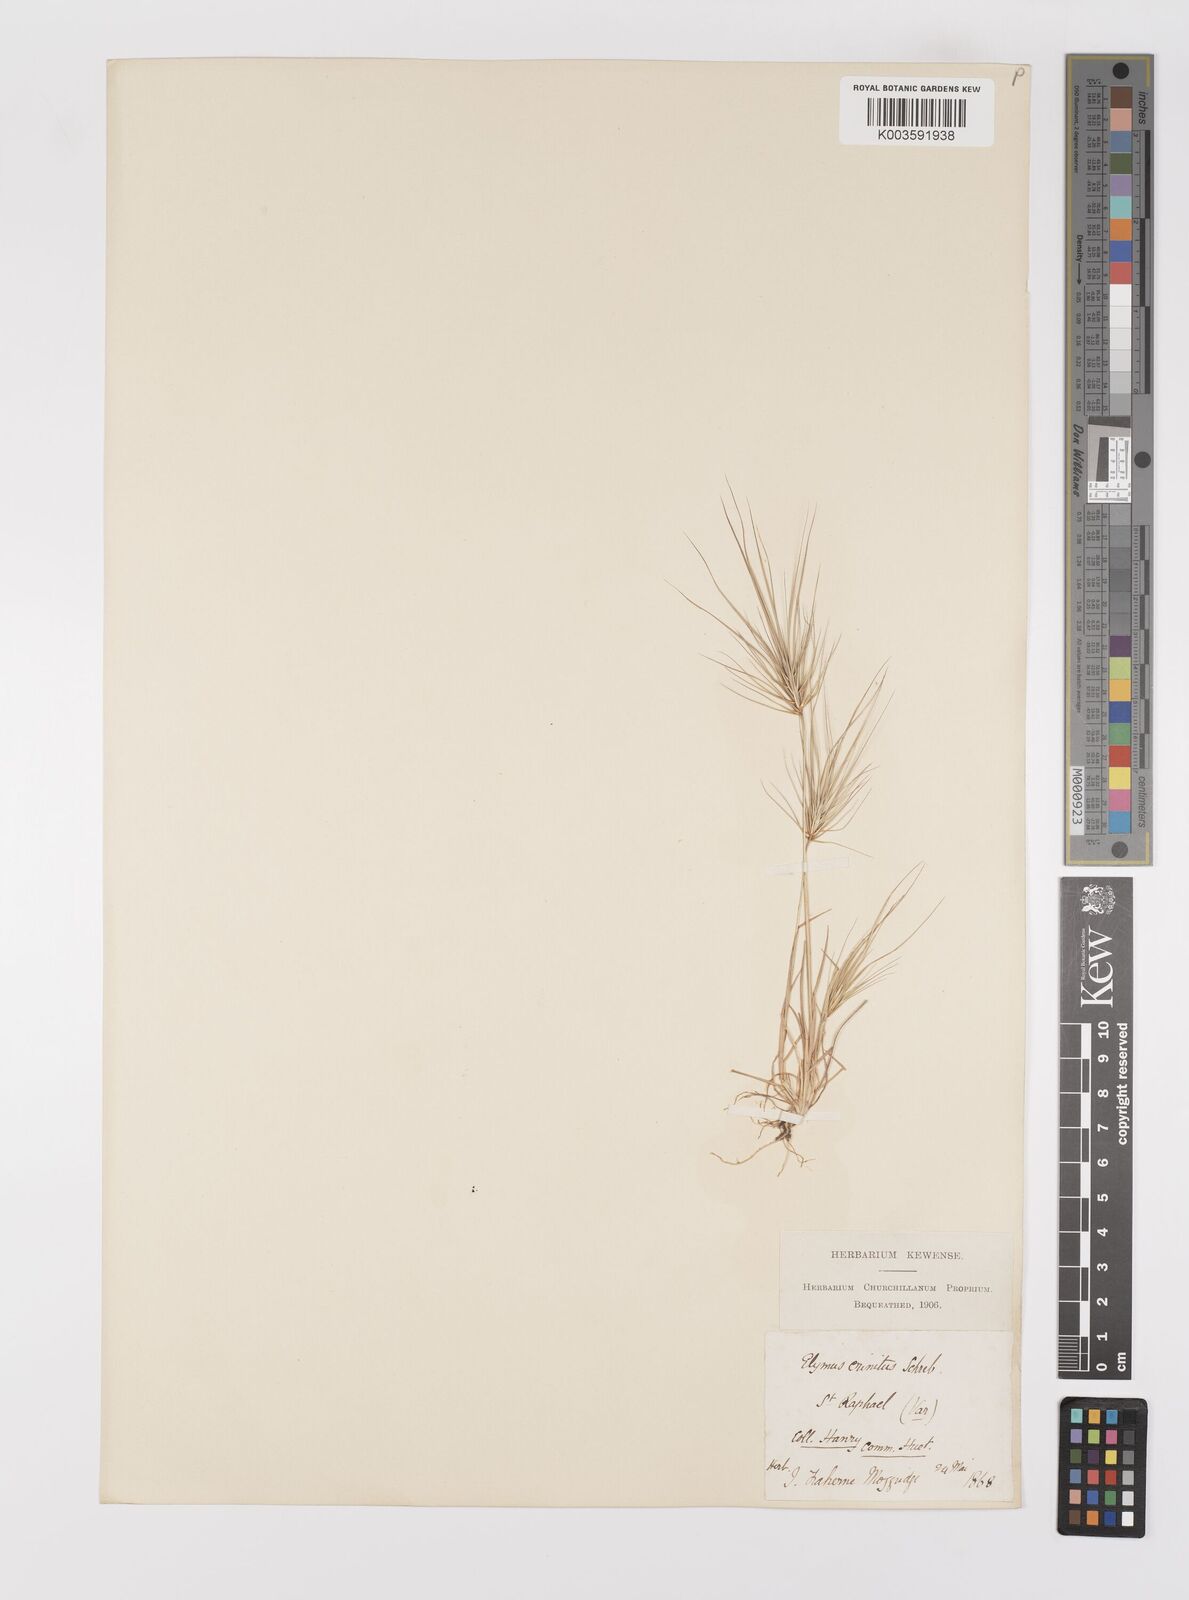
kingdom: Plantae
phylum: Tracheophyta
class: Liliopsida
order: Poales
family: Poaceae
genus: Taeniatherum
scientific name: Taeniatherum caput-medusae
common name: Medusahead
